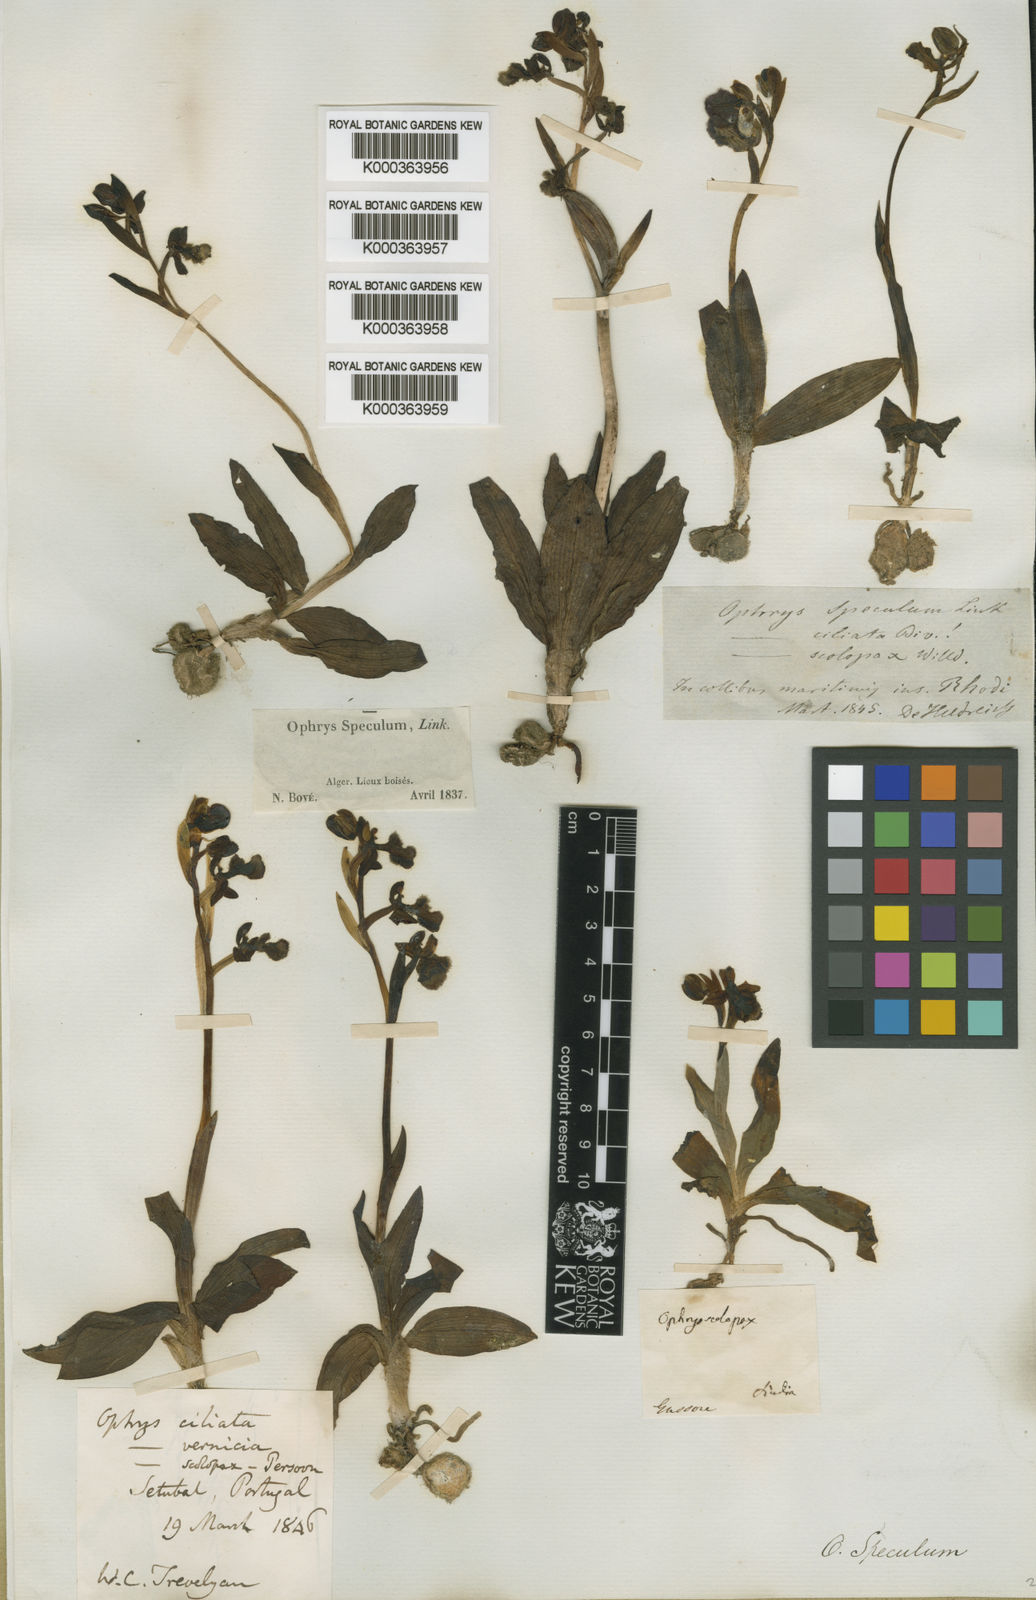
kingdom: Plantae
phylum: Tracheophyta
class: Liliopsida
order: Asparagales
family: Orchidaceae
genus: Ophrys
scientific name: Ophrys speculum
